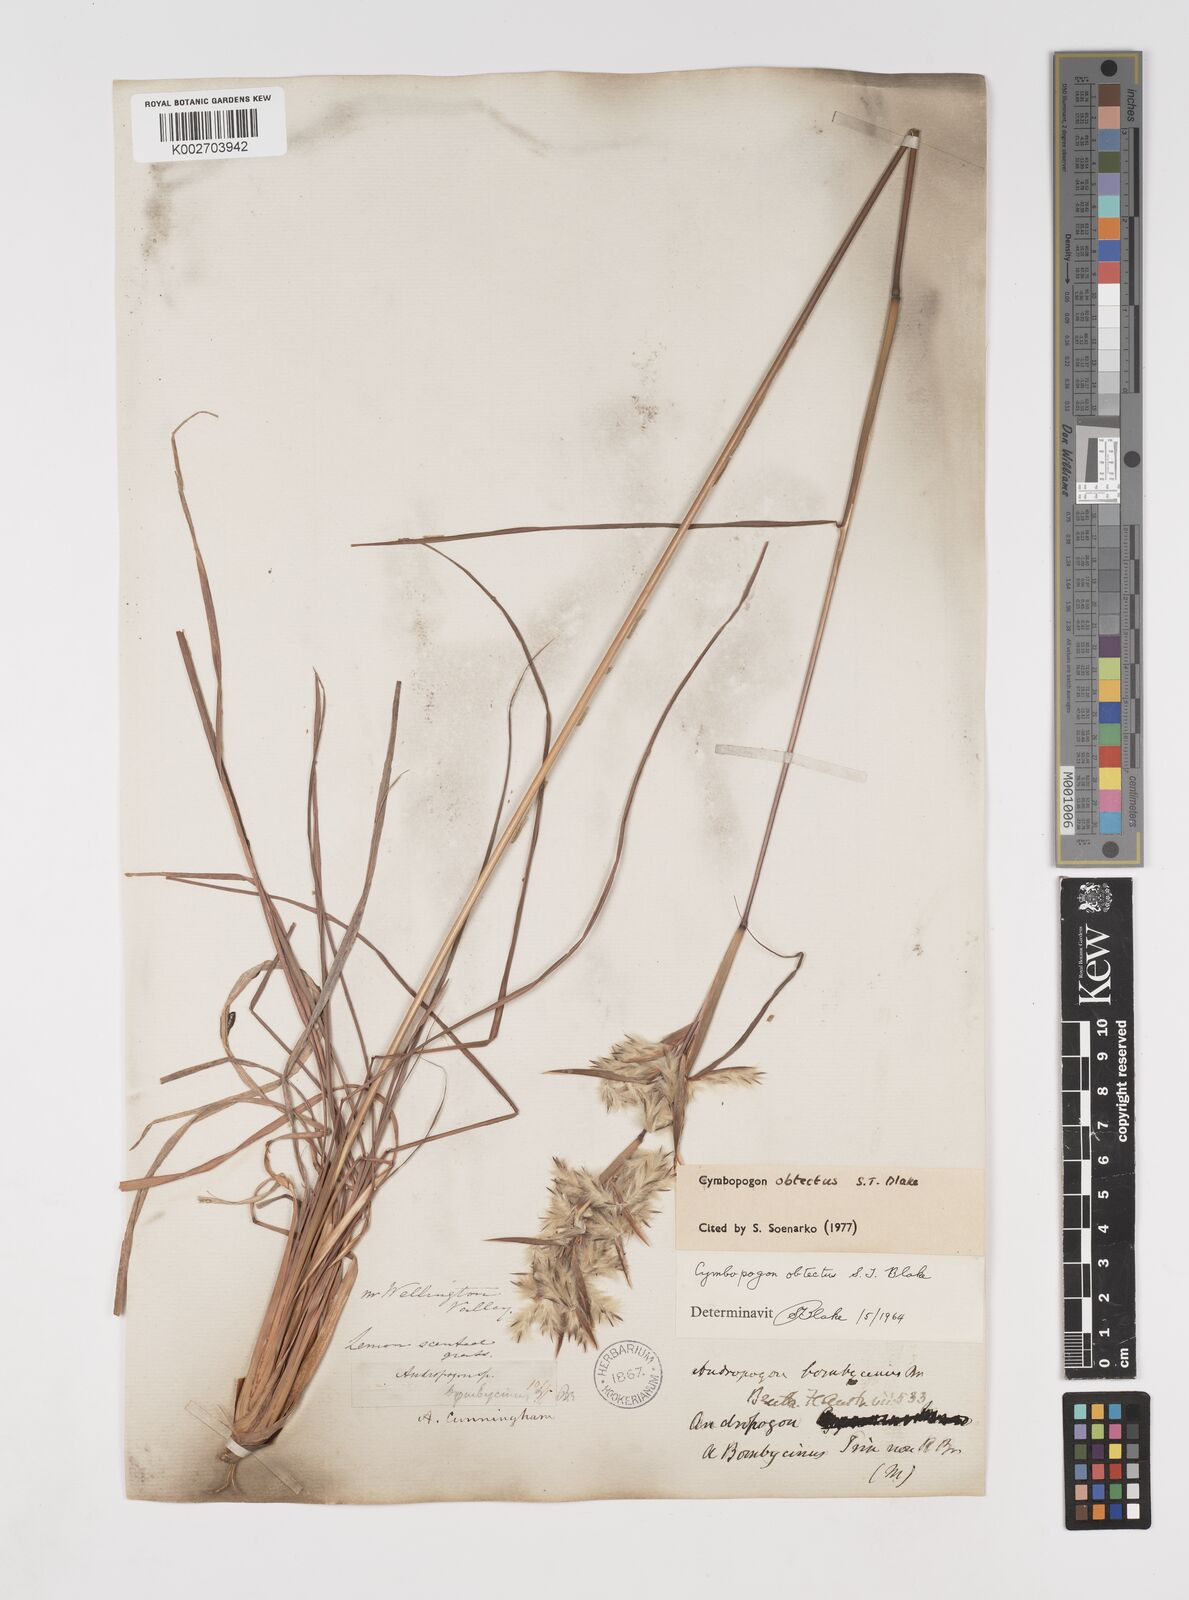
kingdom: Plantae
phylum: Tracheophyta
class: Liliopsida
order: Poales
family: Poaceae
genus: Cymbopogon
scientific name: Cymbopogon obtectus
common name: Silky heads
